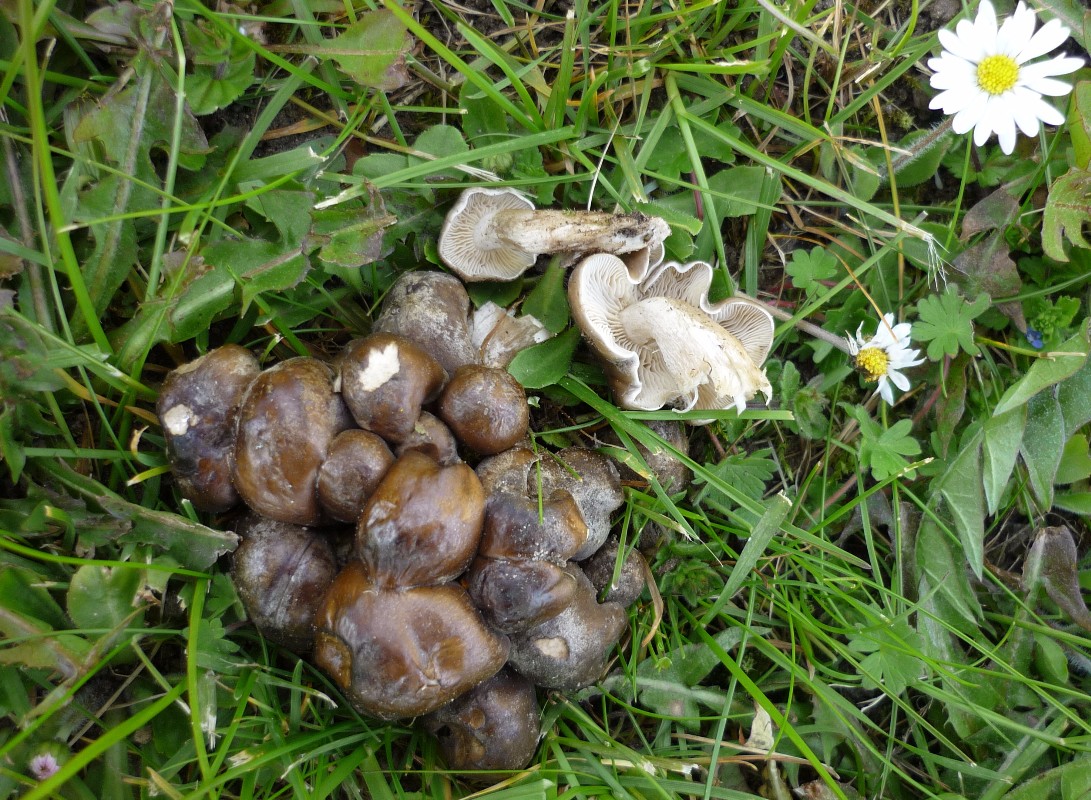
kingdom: Fungi
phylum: Basidiomycota
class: Agaricomycetes
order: Agaricales
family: Lyophyllaceae
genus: Lyophyllum
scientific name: Lyophyllum decastes
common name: røggrå gråblad
